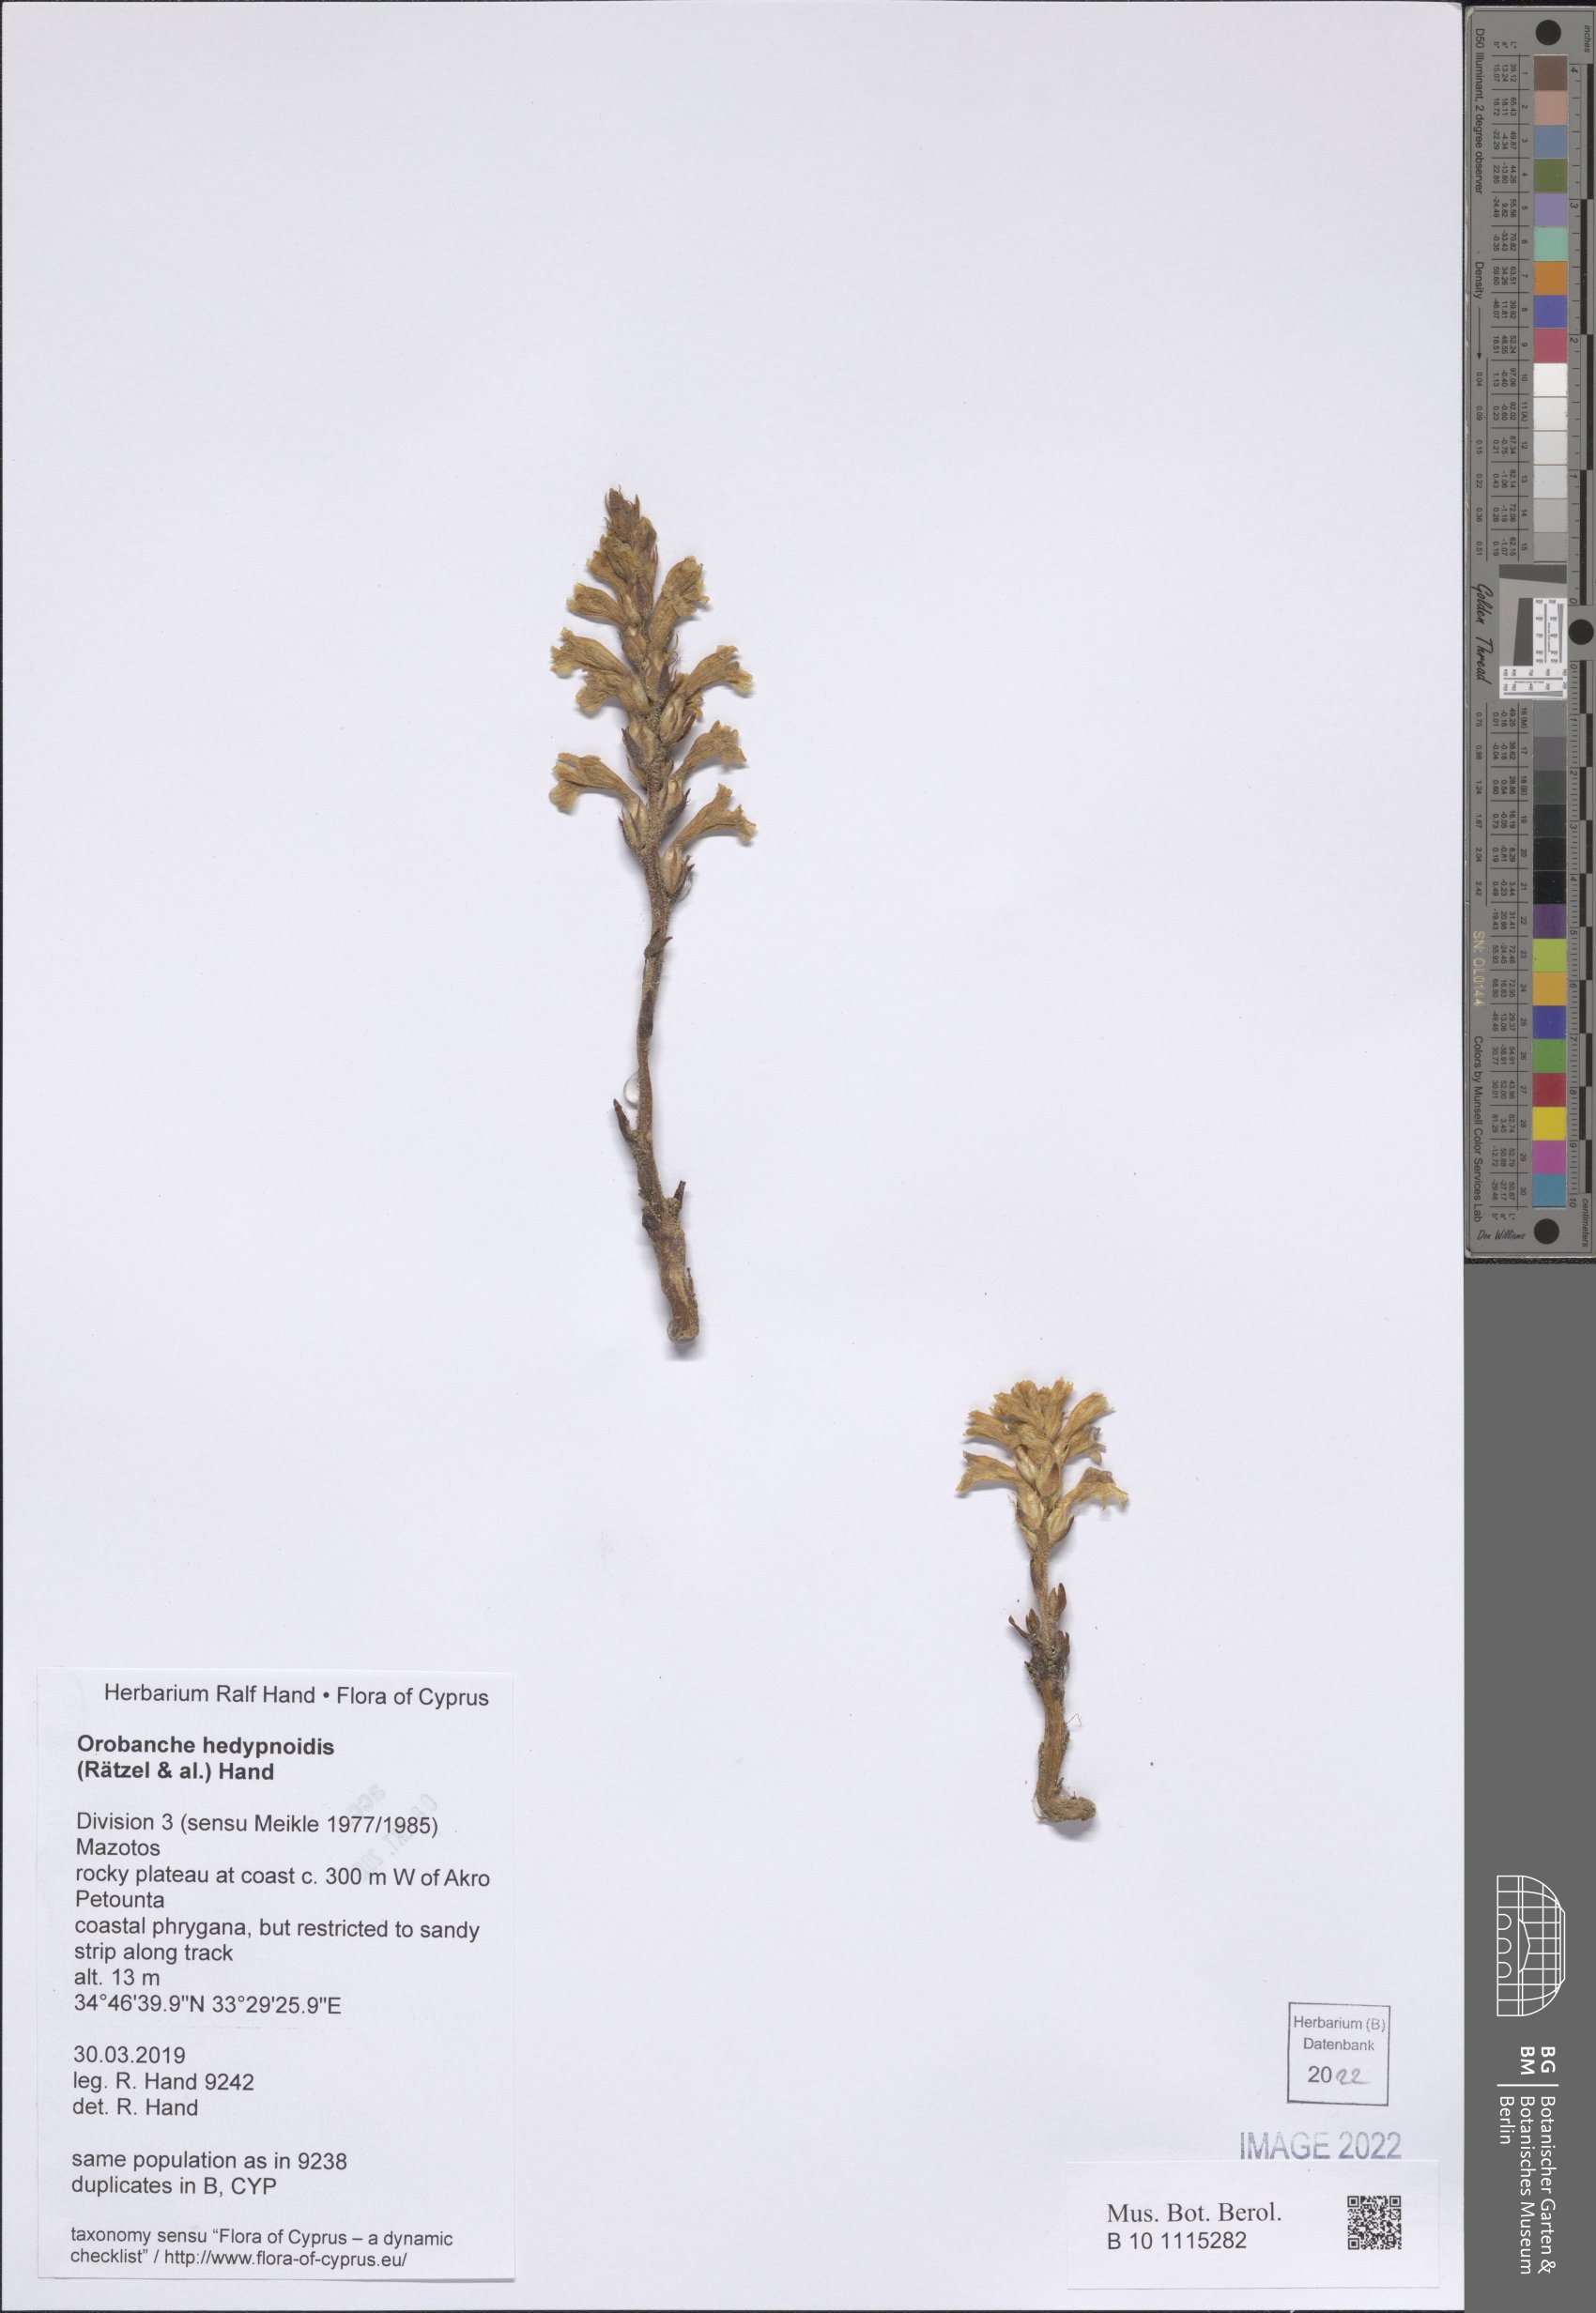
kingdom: Plantae
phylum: Tracheophyta
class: Magnoliopsida
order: Lamiales
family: Orobanchaceae
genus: Phelipanche
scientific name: Phelipanche hedypnoidis
